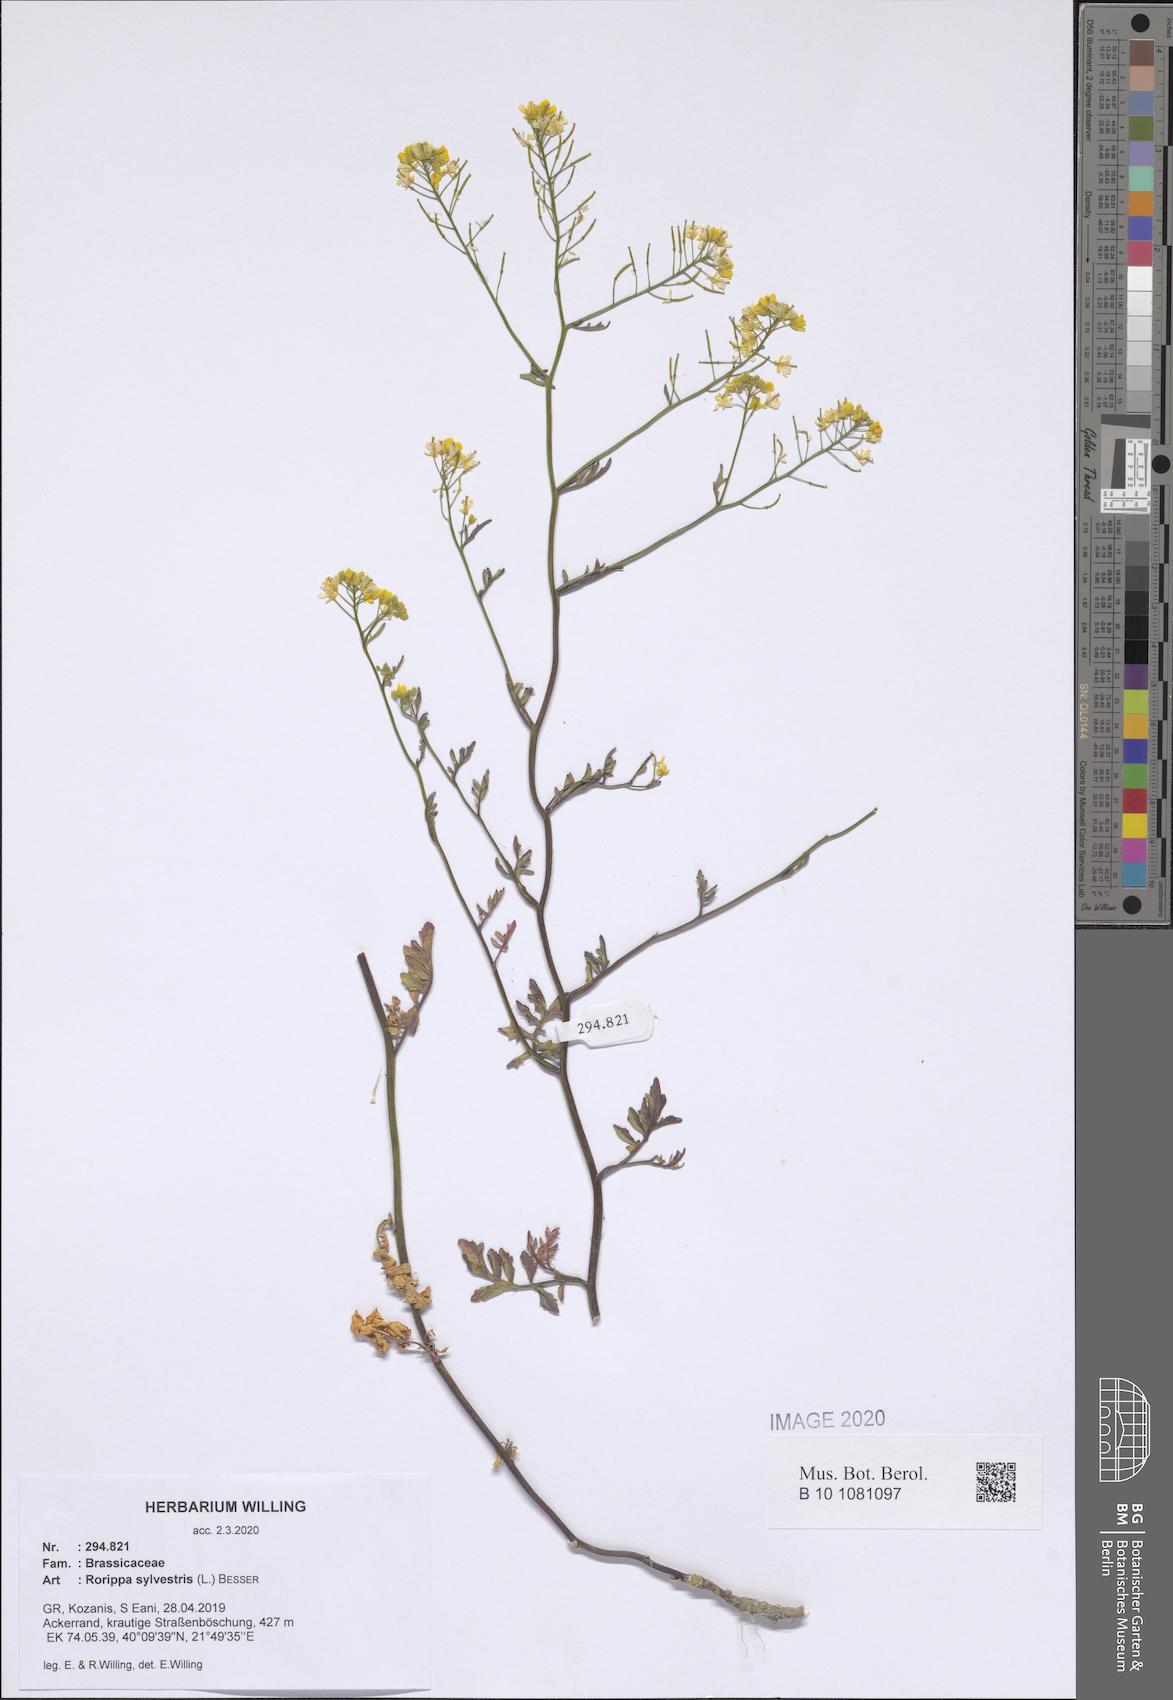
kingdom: Plantae
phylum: Tracheophyta
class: Magnoliopsida
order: Brassicales
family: Brassicaceae
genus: Rorippa
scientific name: Rorippa sylvestris
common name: Creeping yellowcress
